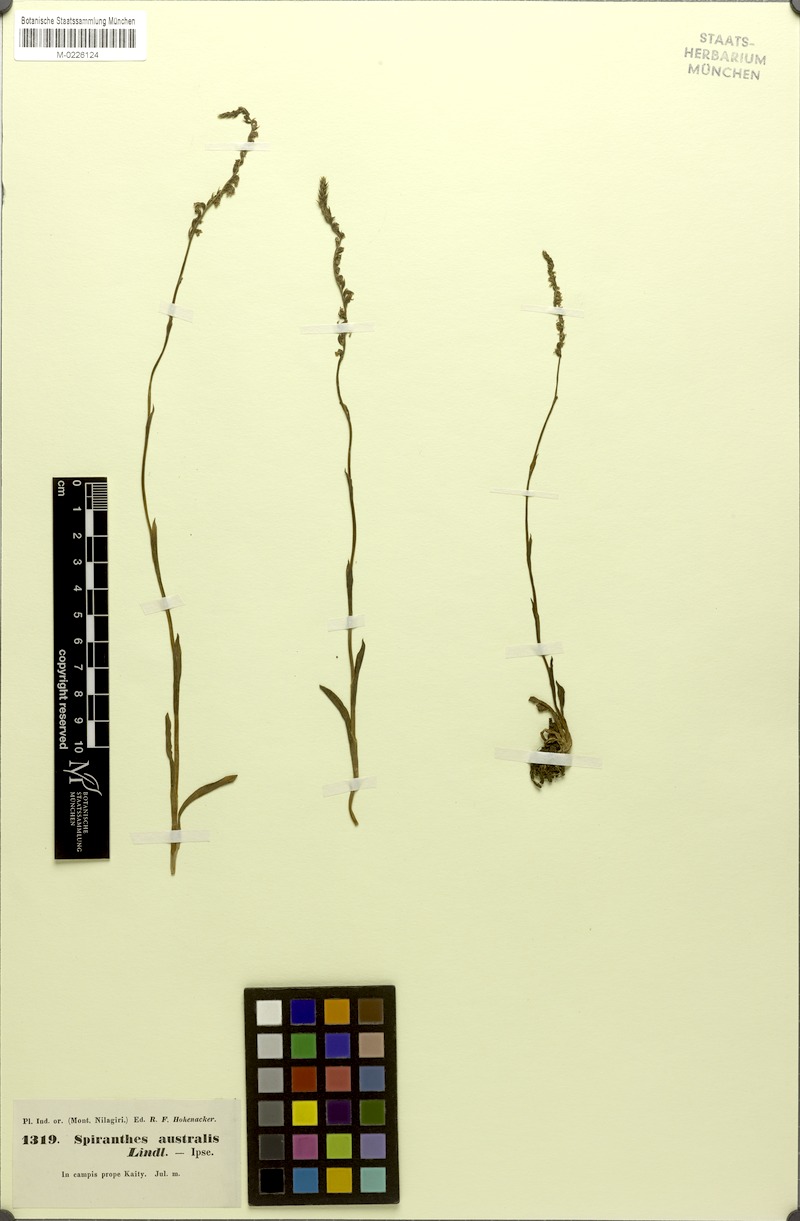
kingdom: Plantae
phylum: Tracheophyta
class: Liliopsida
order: Asparagales
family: Orchidaceae
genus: Spiranthes
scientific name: Spiranthes sinensis
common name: Chinese spiranthes
